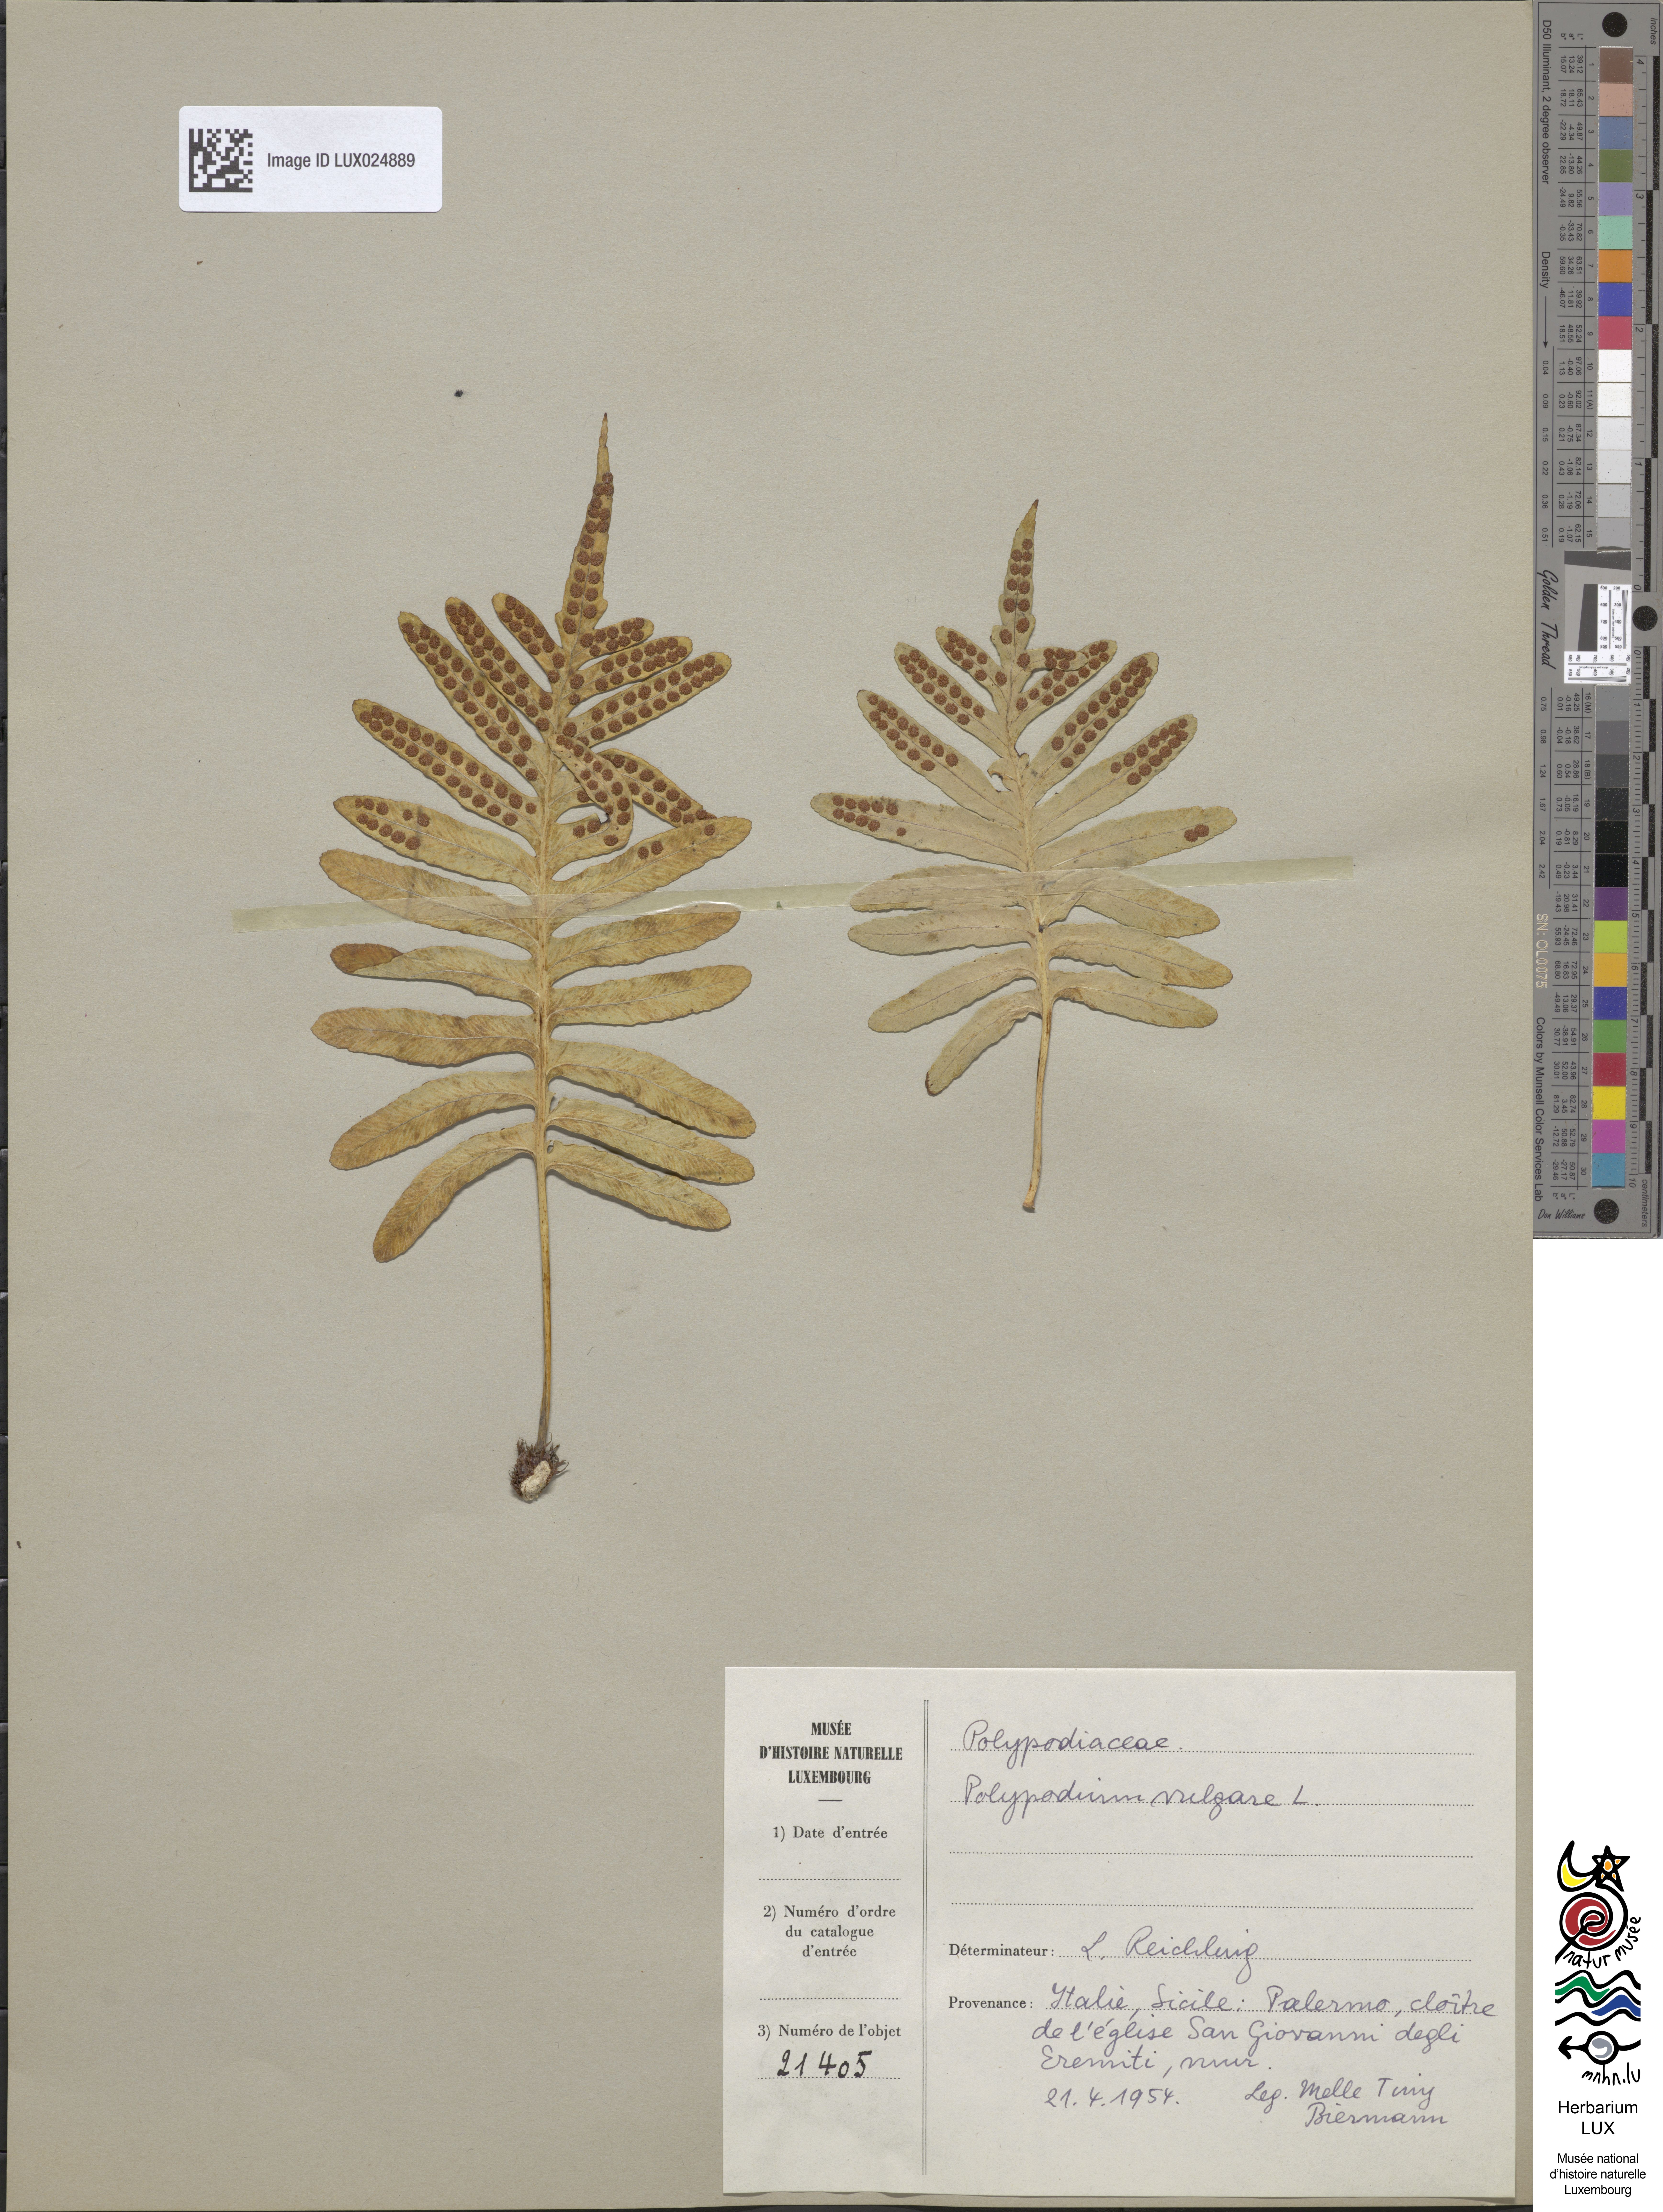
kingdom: Plantae
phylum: Tracheophyta
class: Polypodiopsida
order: Polypodiales
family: Polypodiaceae
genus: Polypodium
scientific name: Polypodium vulgare
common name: Common polypody
